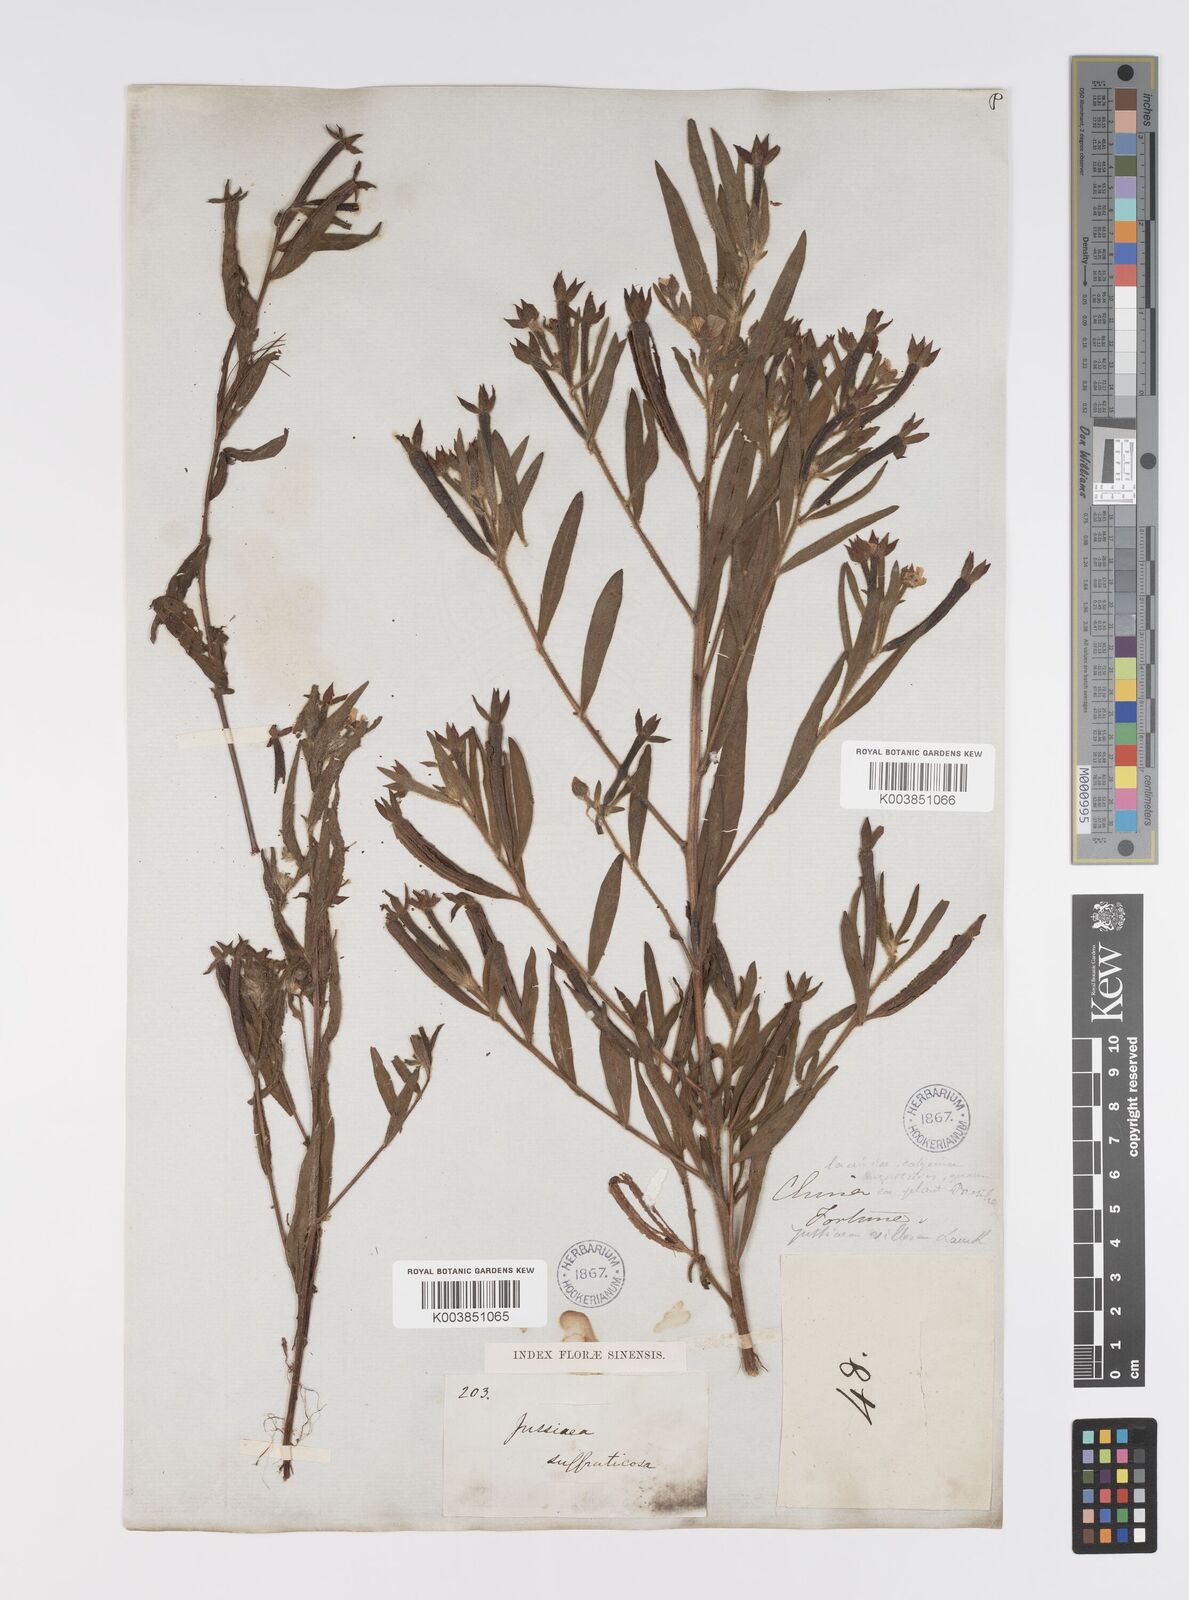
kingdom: Plantae
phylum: Tracheophyta
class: Magnoliopsida
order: Myrtales
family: Onagraceae
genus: Ludwigia
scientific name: Ludwigia octovalvis
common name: Water-primrose
